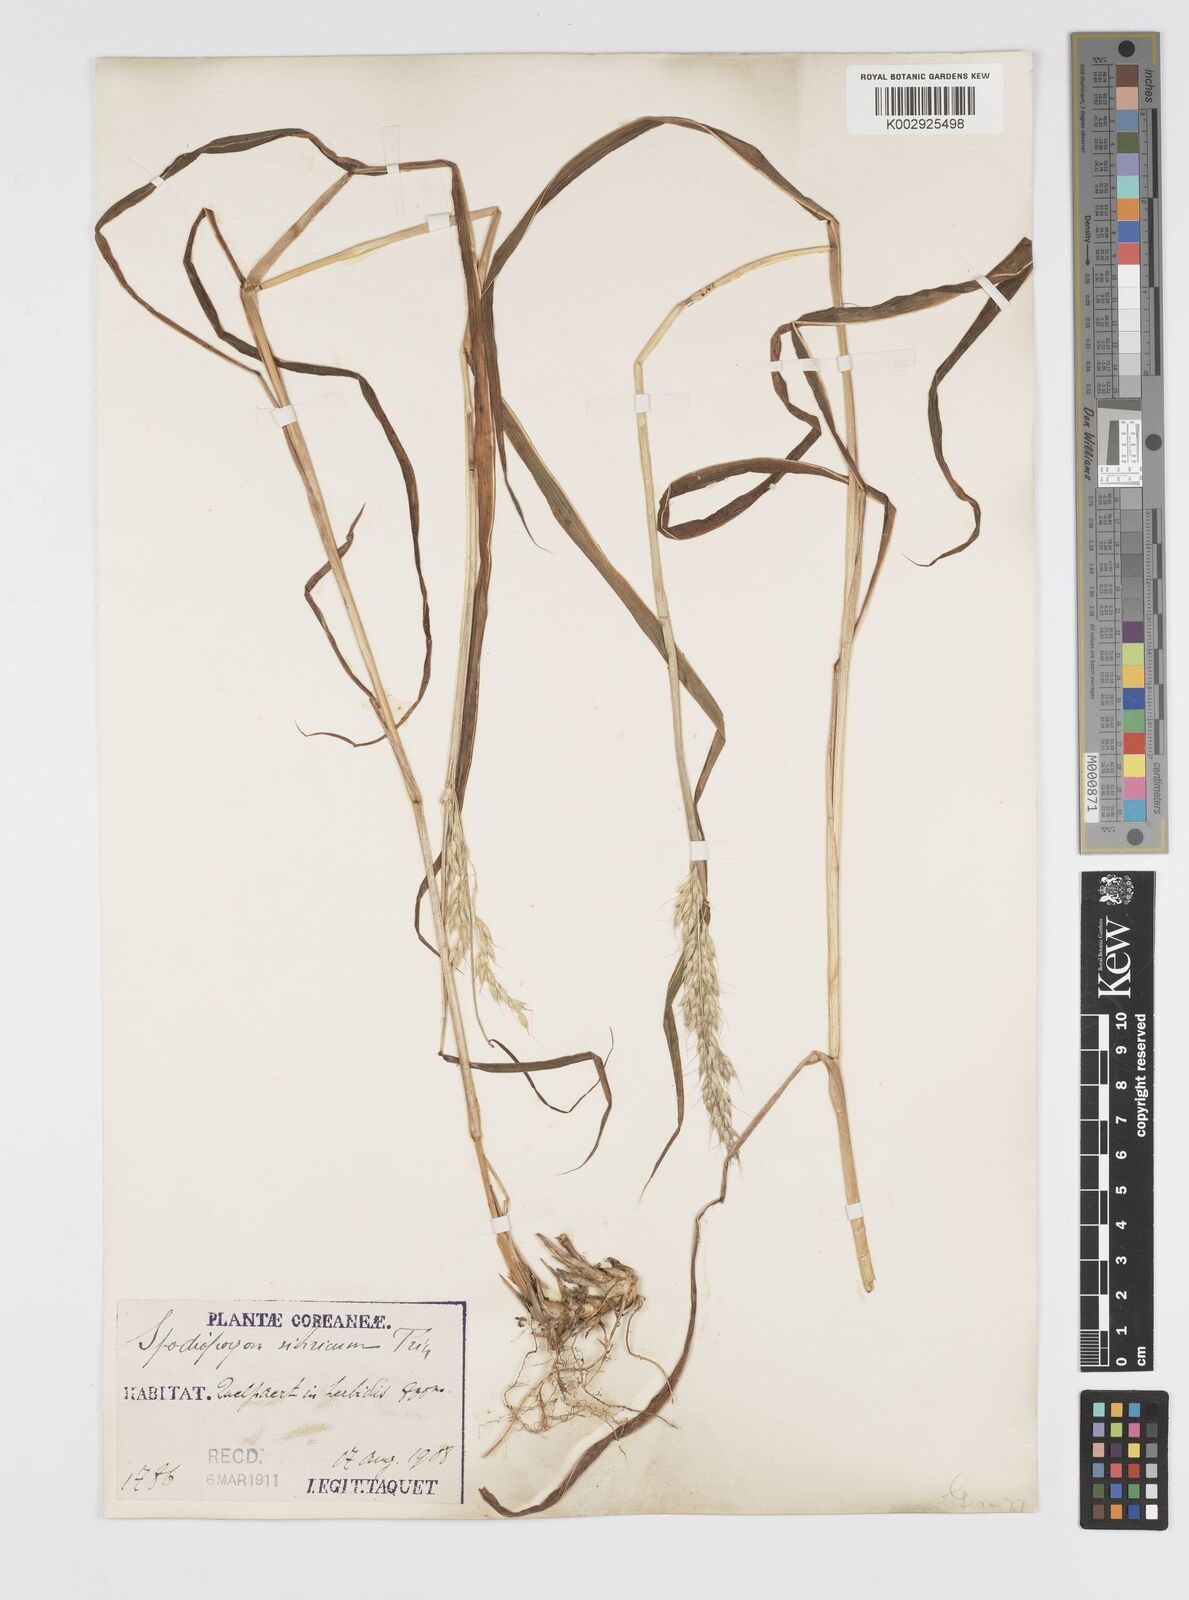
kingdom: Plantae
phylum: Tracheophyta
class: Liliopsida
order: Poales
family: Poaceae
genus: Spodiopogon
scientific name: Spodiopogon sibiricus
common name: Siberian graybeard
